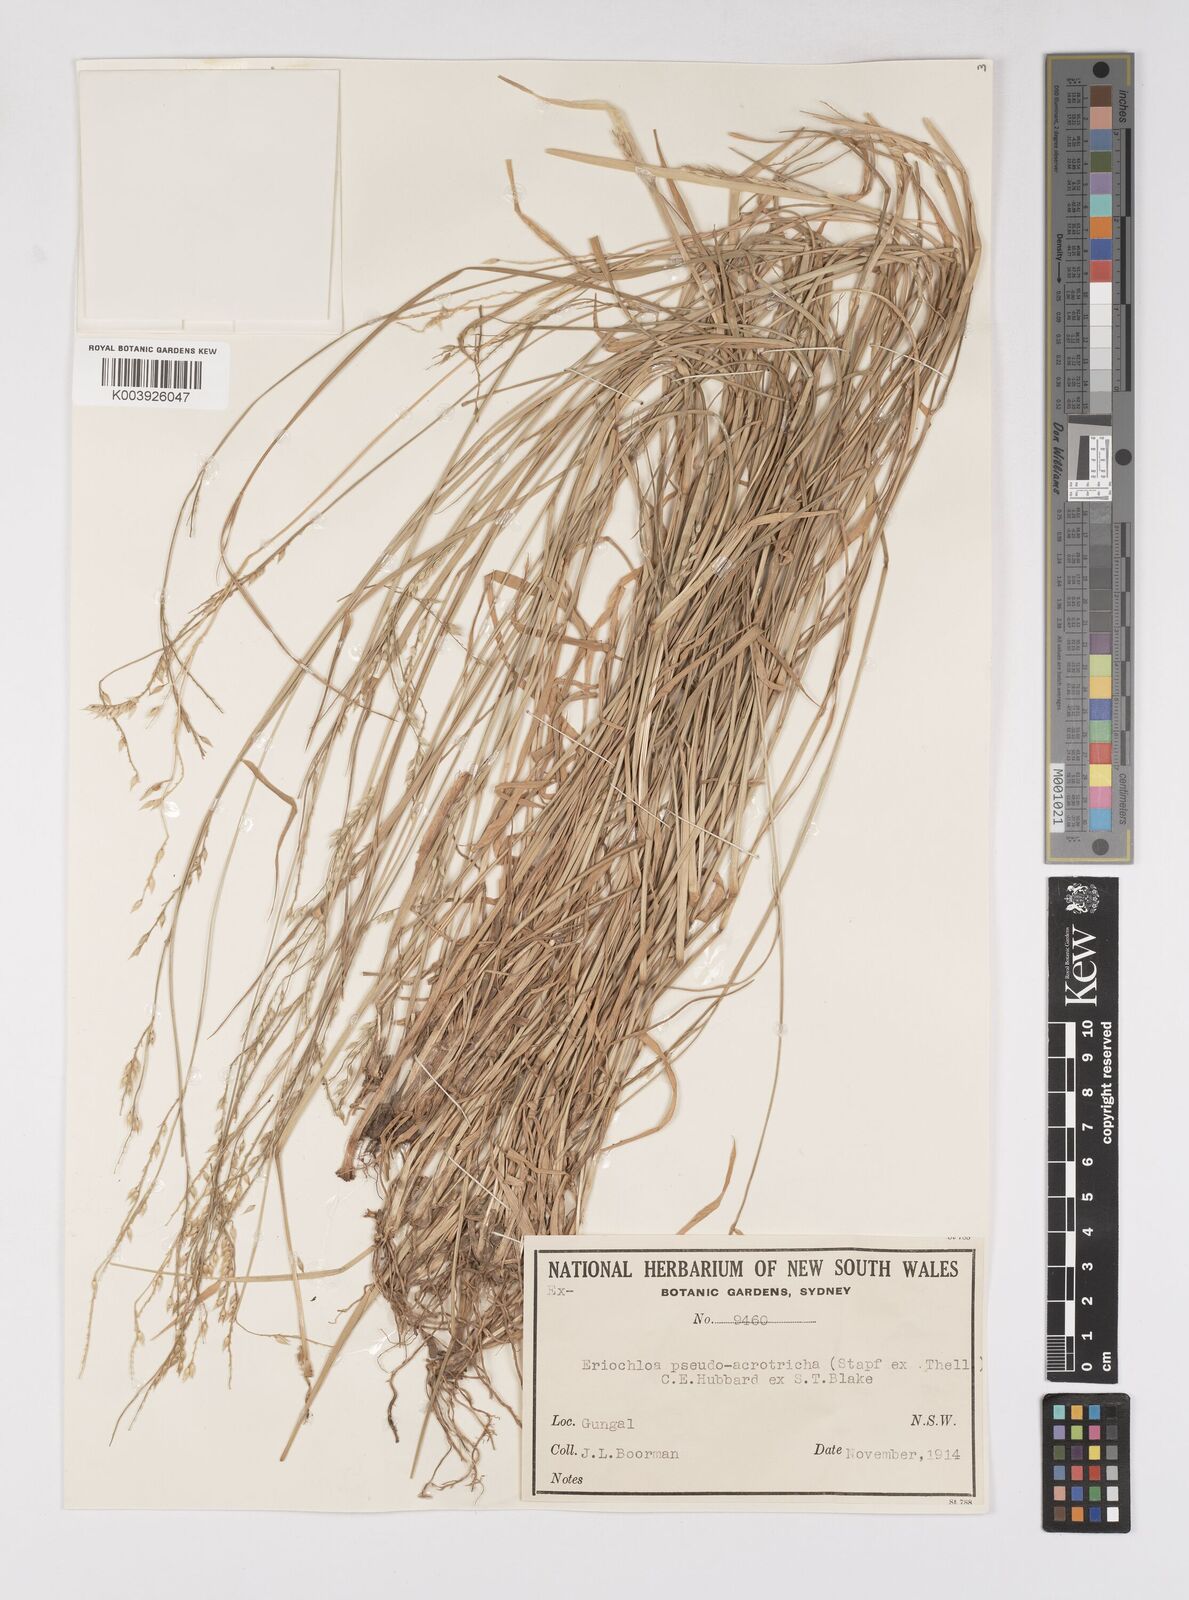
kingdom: Plantae
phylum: Tracheophyta
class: Liliopsida
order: Poales
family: Poaceae
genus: Eriochloa
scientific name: Eriochloa pseudoacrotricha
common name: Perennial cup-grass
